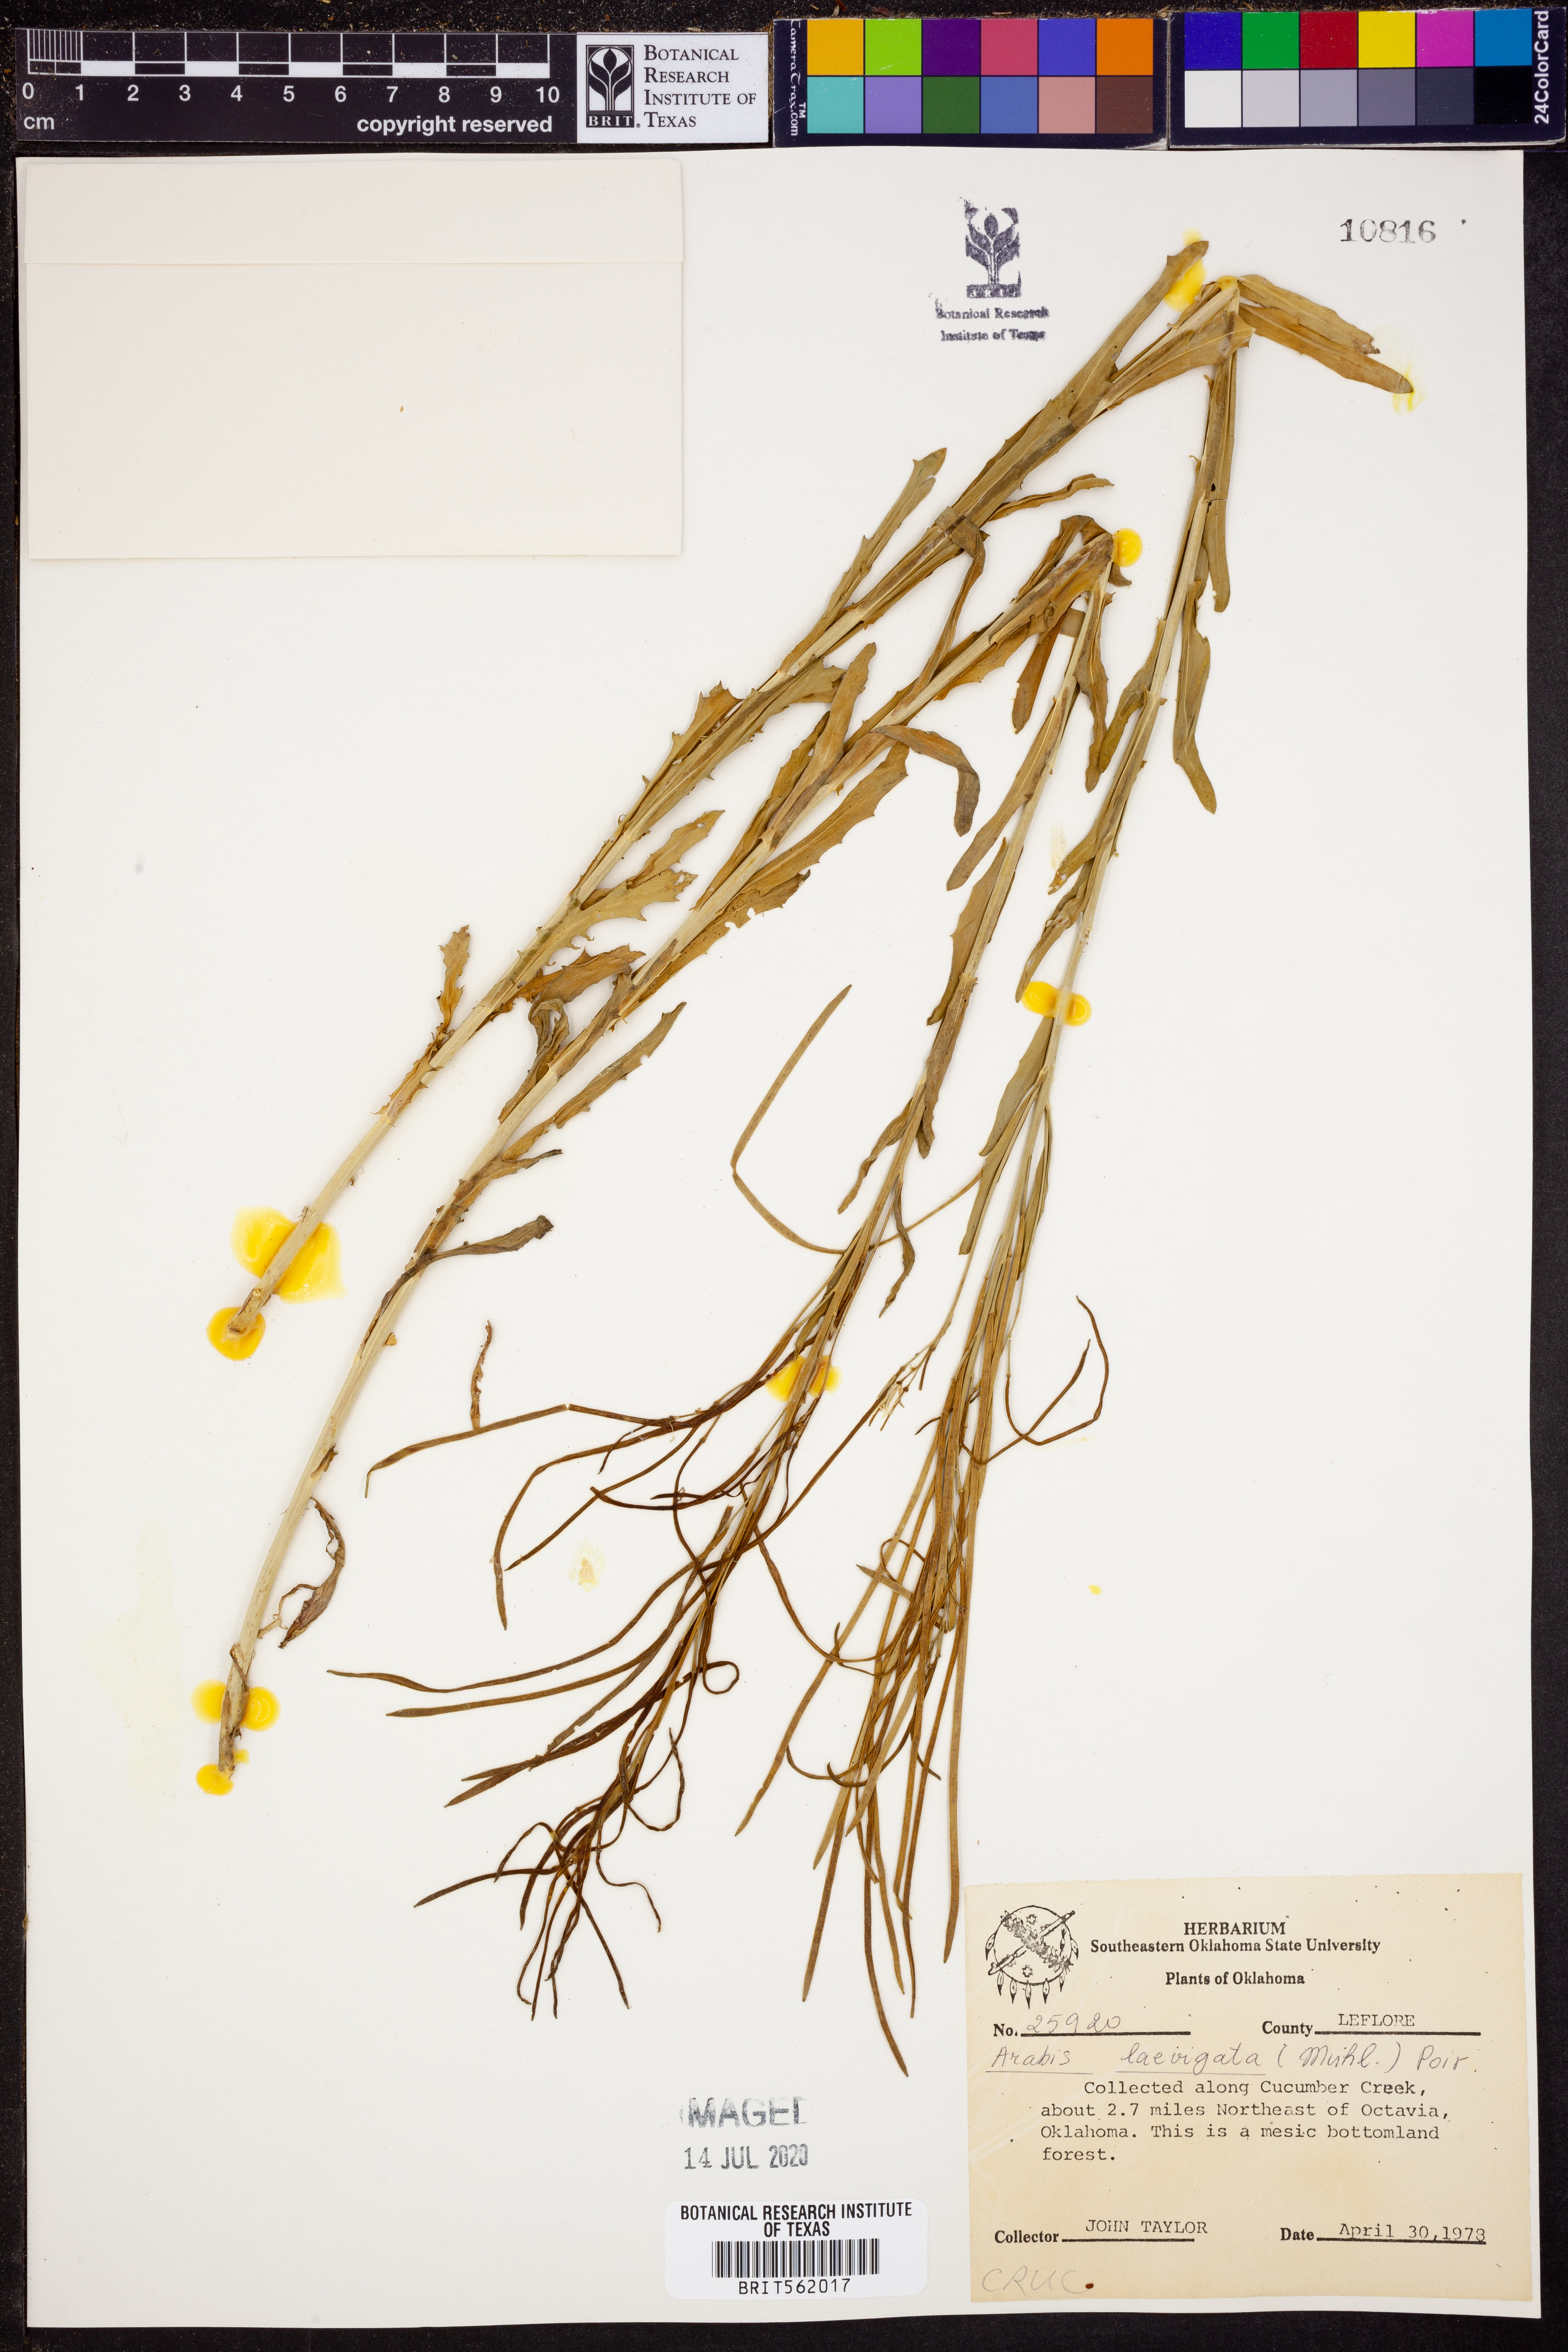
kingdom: Plantae
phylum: Tracheophyta
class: Magnoliopsida
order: Brassicales
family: Brassicaceae
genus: Arabis
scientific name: Arabis laevigata
